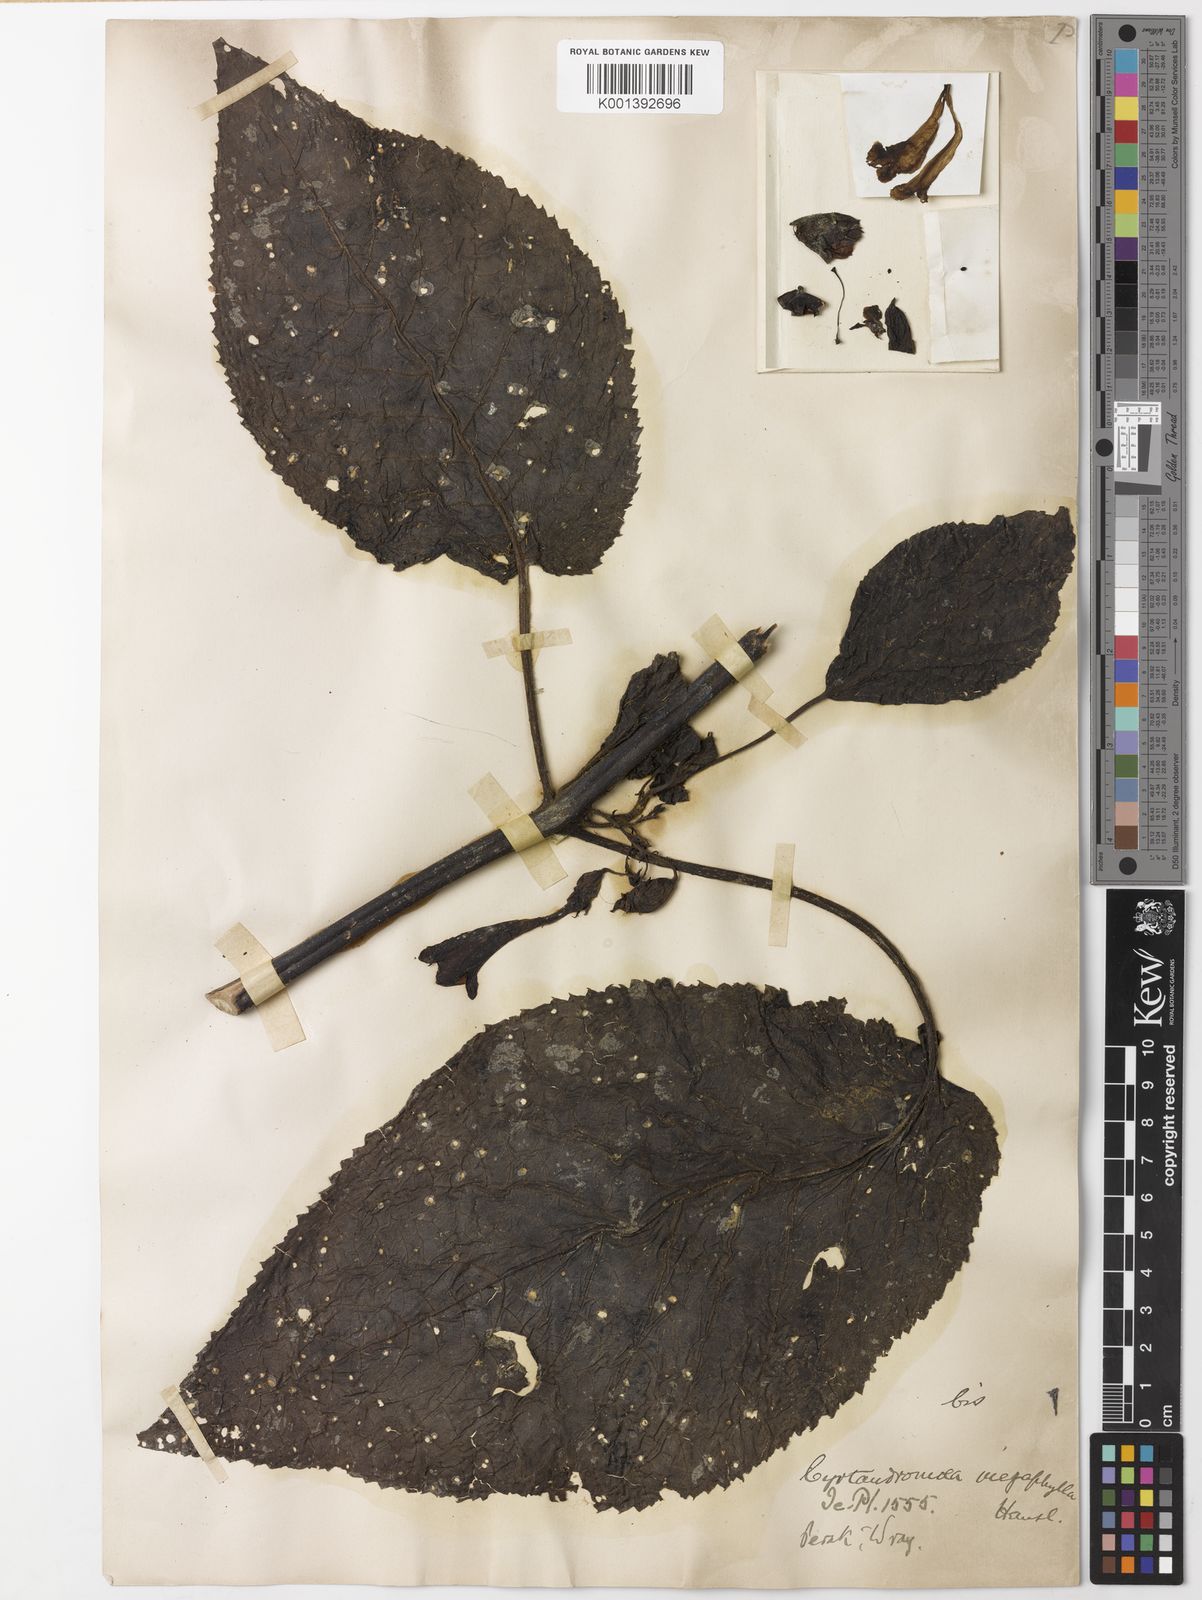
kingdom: Plantae
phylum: Tracheophyta
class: Magnoliopsida
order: Lamiales
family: Phrymaceae
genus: Cyrtandromoea
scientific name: Cyrtandromoea megaphylla
